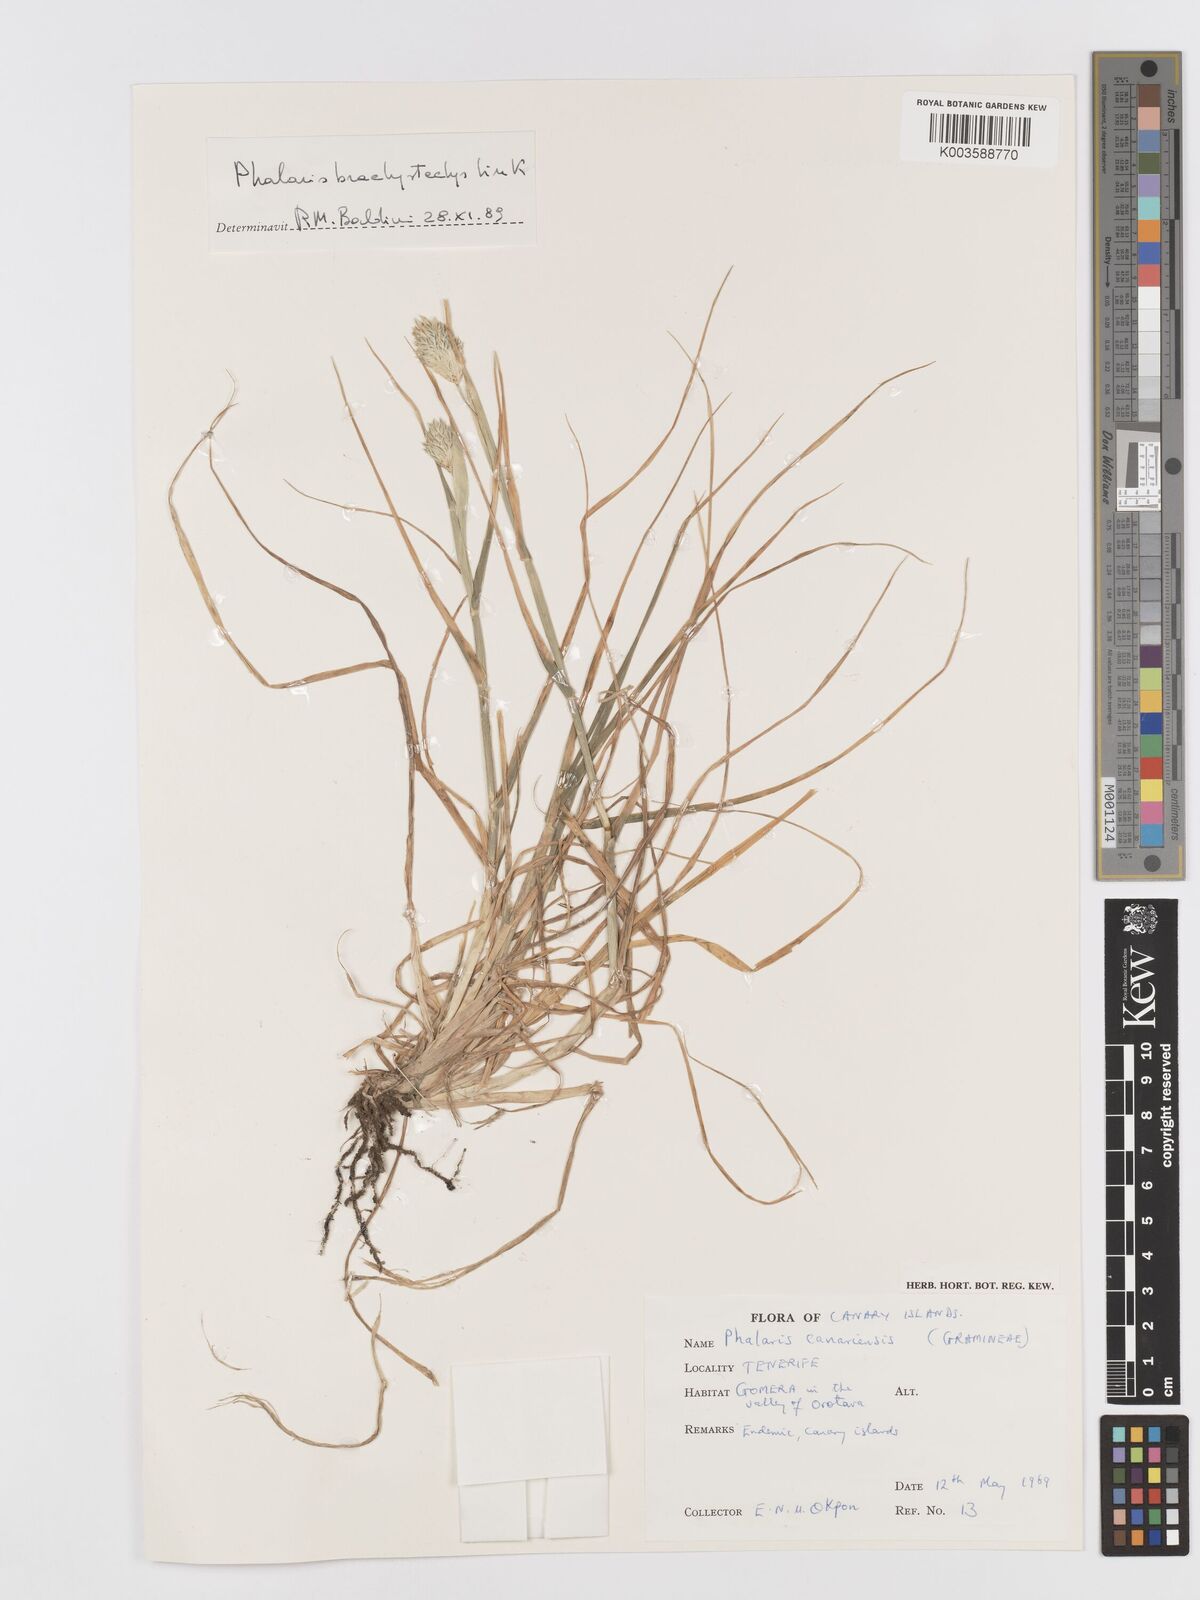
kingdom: Plantae
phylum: Tracheophyta
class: Liliopsida
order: Poales
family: Poaceae
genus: Phalaris
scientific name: Phalaris canariensis
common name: Annual canarygrass
